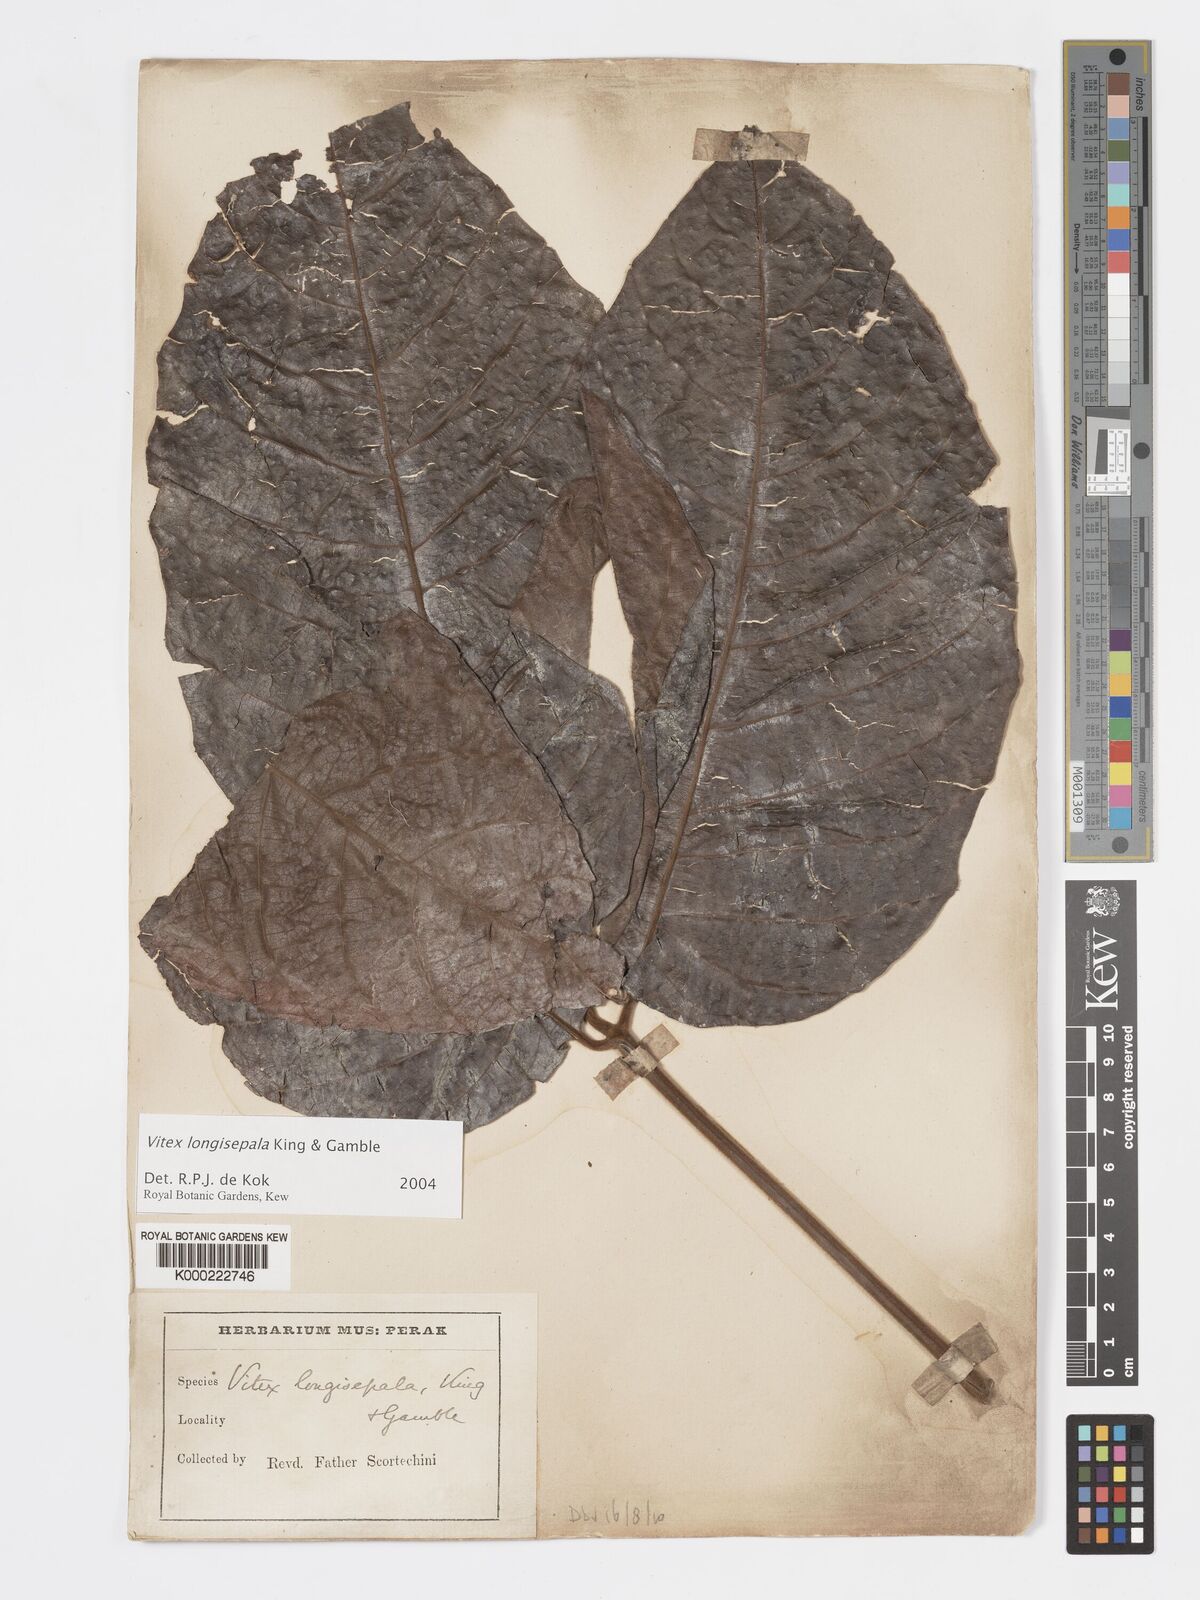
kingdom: Plantae
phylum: Tracheophyta
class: Magnoliopsida
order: Lamiales
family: Lamiaceae
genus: Vitex
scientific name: Vitex longisepala
